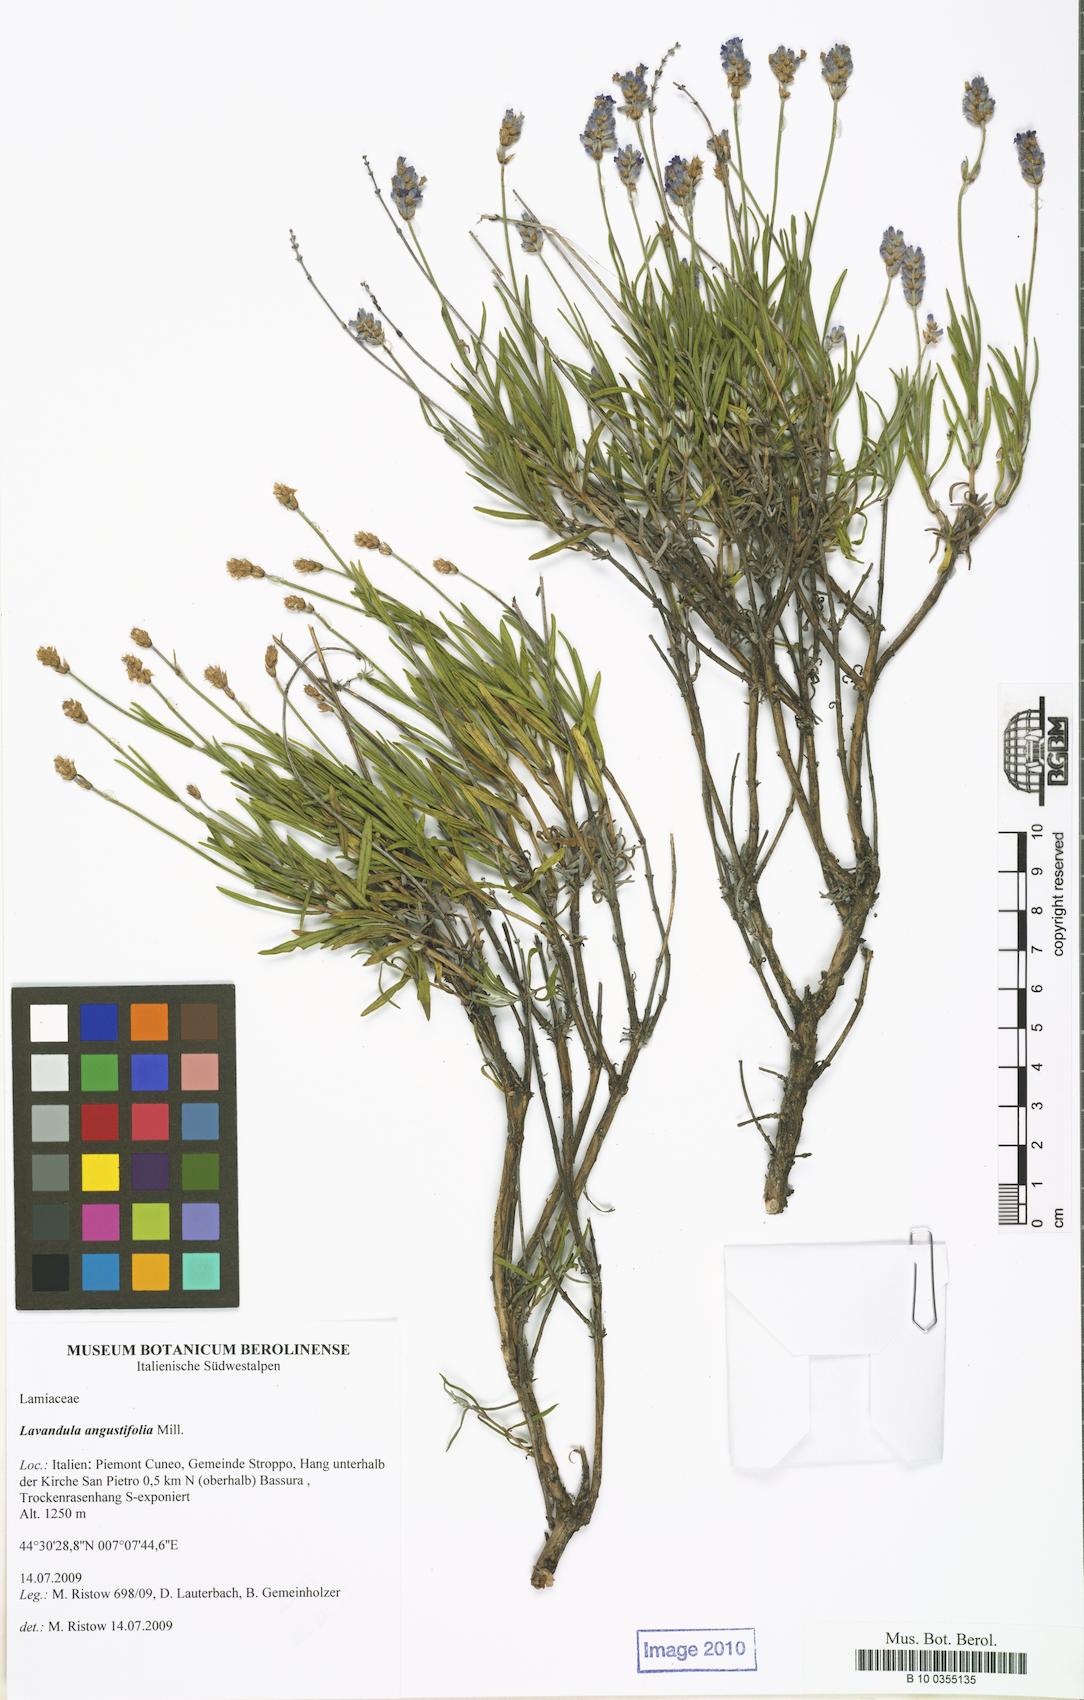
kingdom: Plantae
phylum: Tracheophyta
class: Magnoliopsida
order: Lamiales
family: Lamiaceae
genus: Lavandula
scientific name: Lavandula angustifolia
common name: Garden lavender
